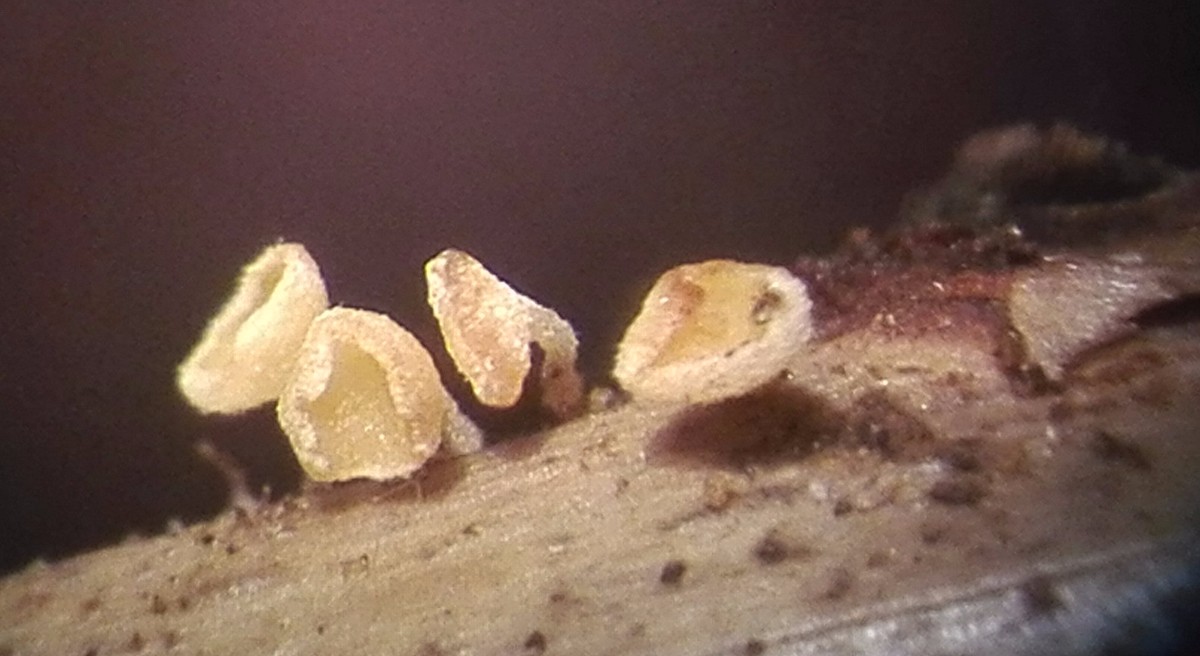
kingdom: Fungi
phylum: Ascomycota
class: Leotiomycetes
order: Helotiales
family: Lachnaceae
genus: Lachnum
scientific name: Lachnum nudipes
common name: mjødurt-frynseskive
